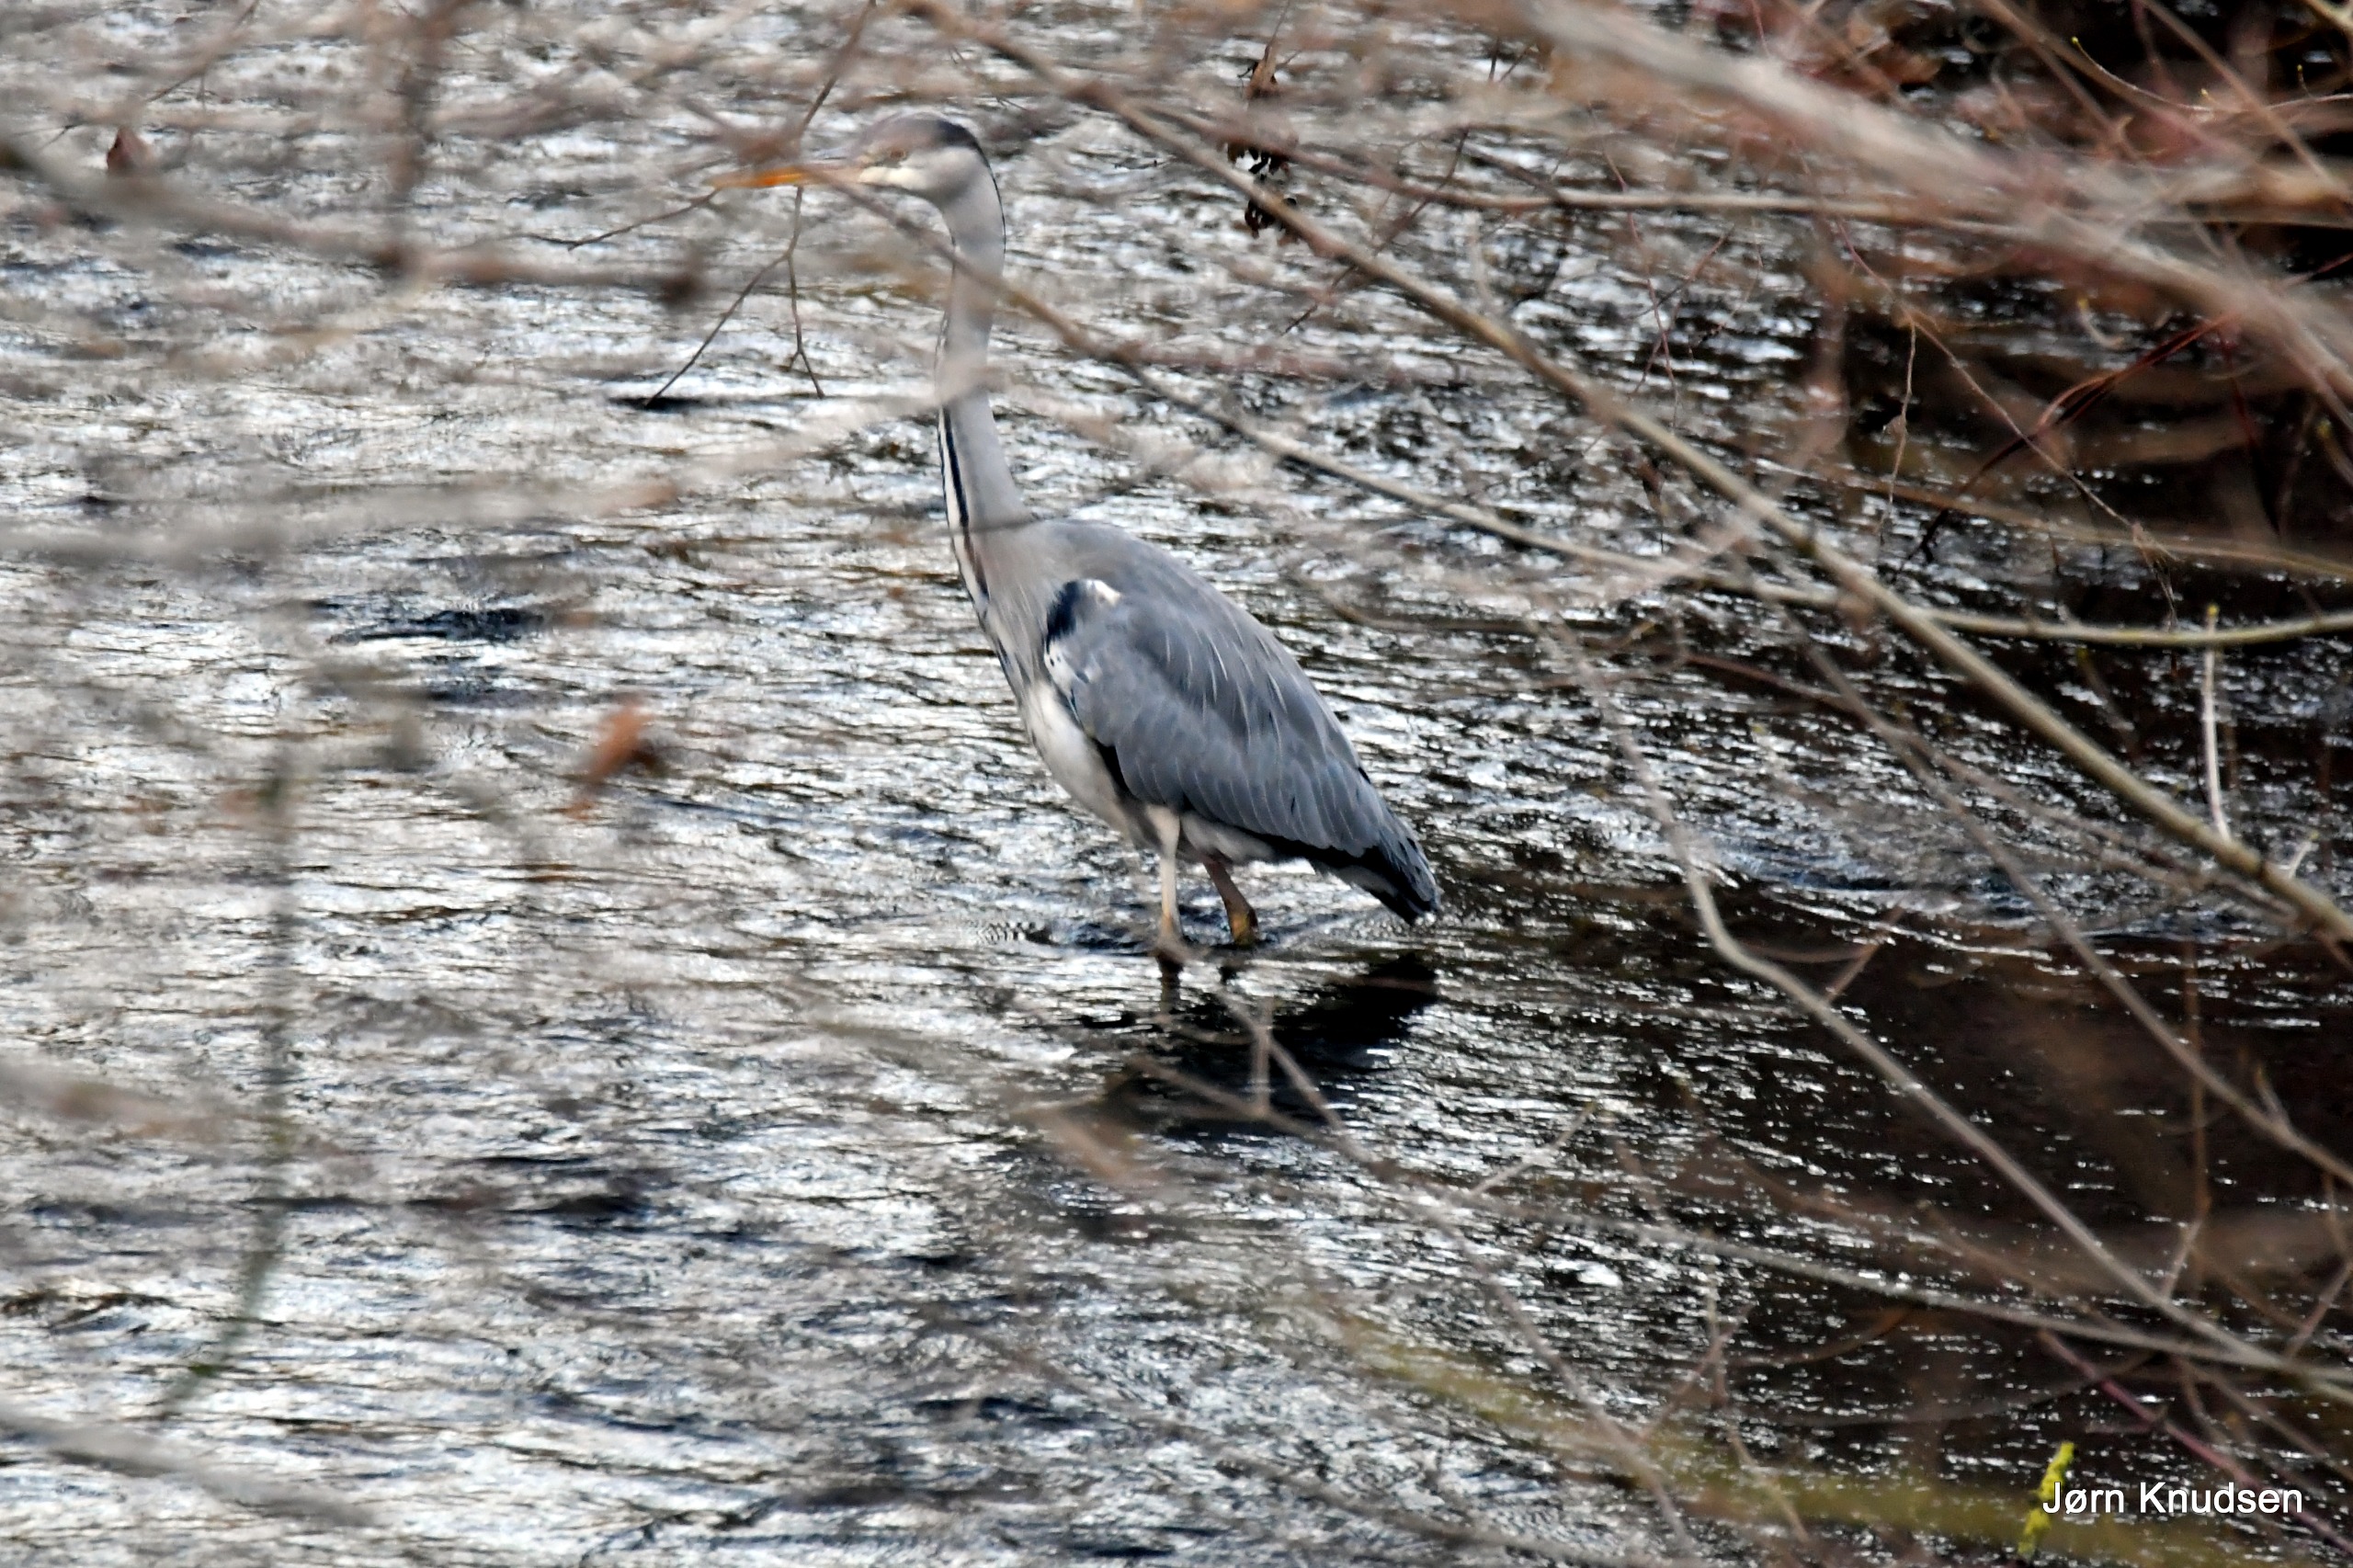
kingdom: Animalia
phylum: Chordata
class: Aves
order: Pelecaniformes
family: Ardeidae
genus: Ardea
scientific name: Ardea cinerea
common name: Fiskehejre
